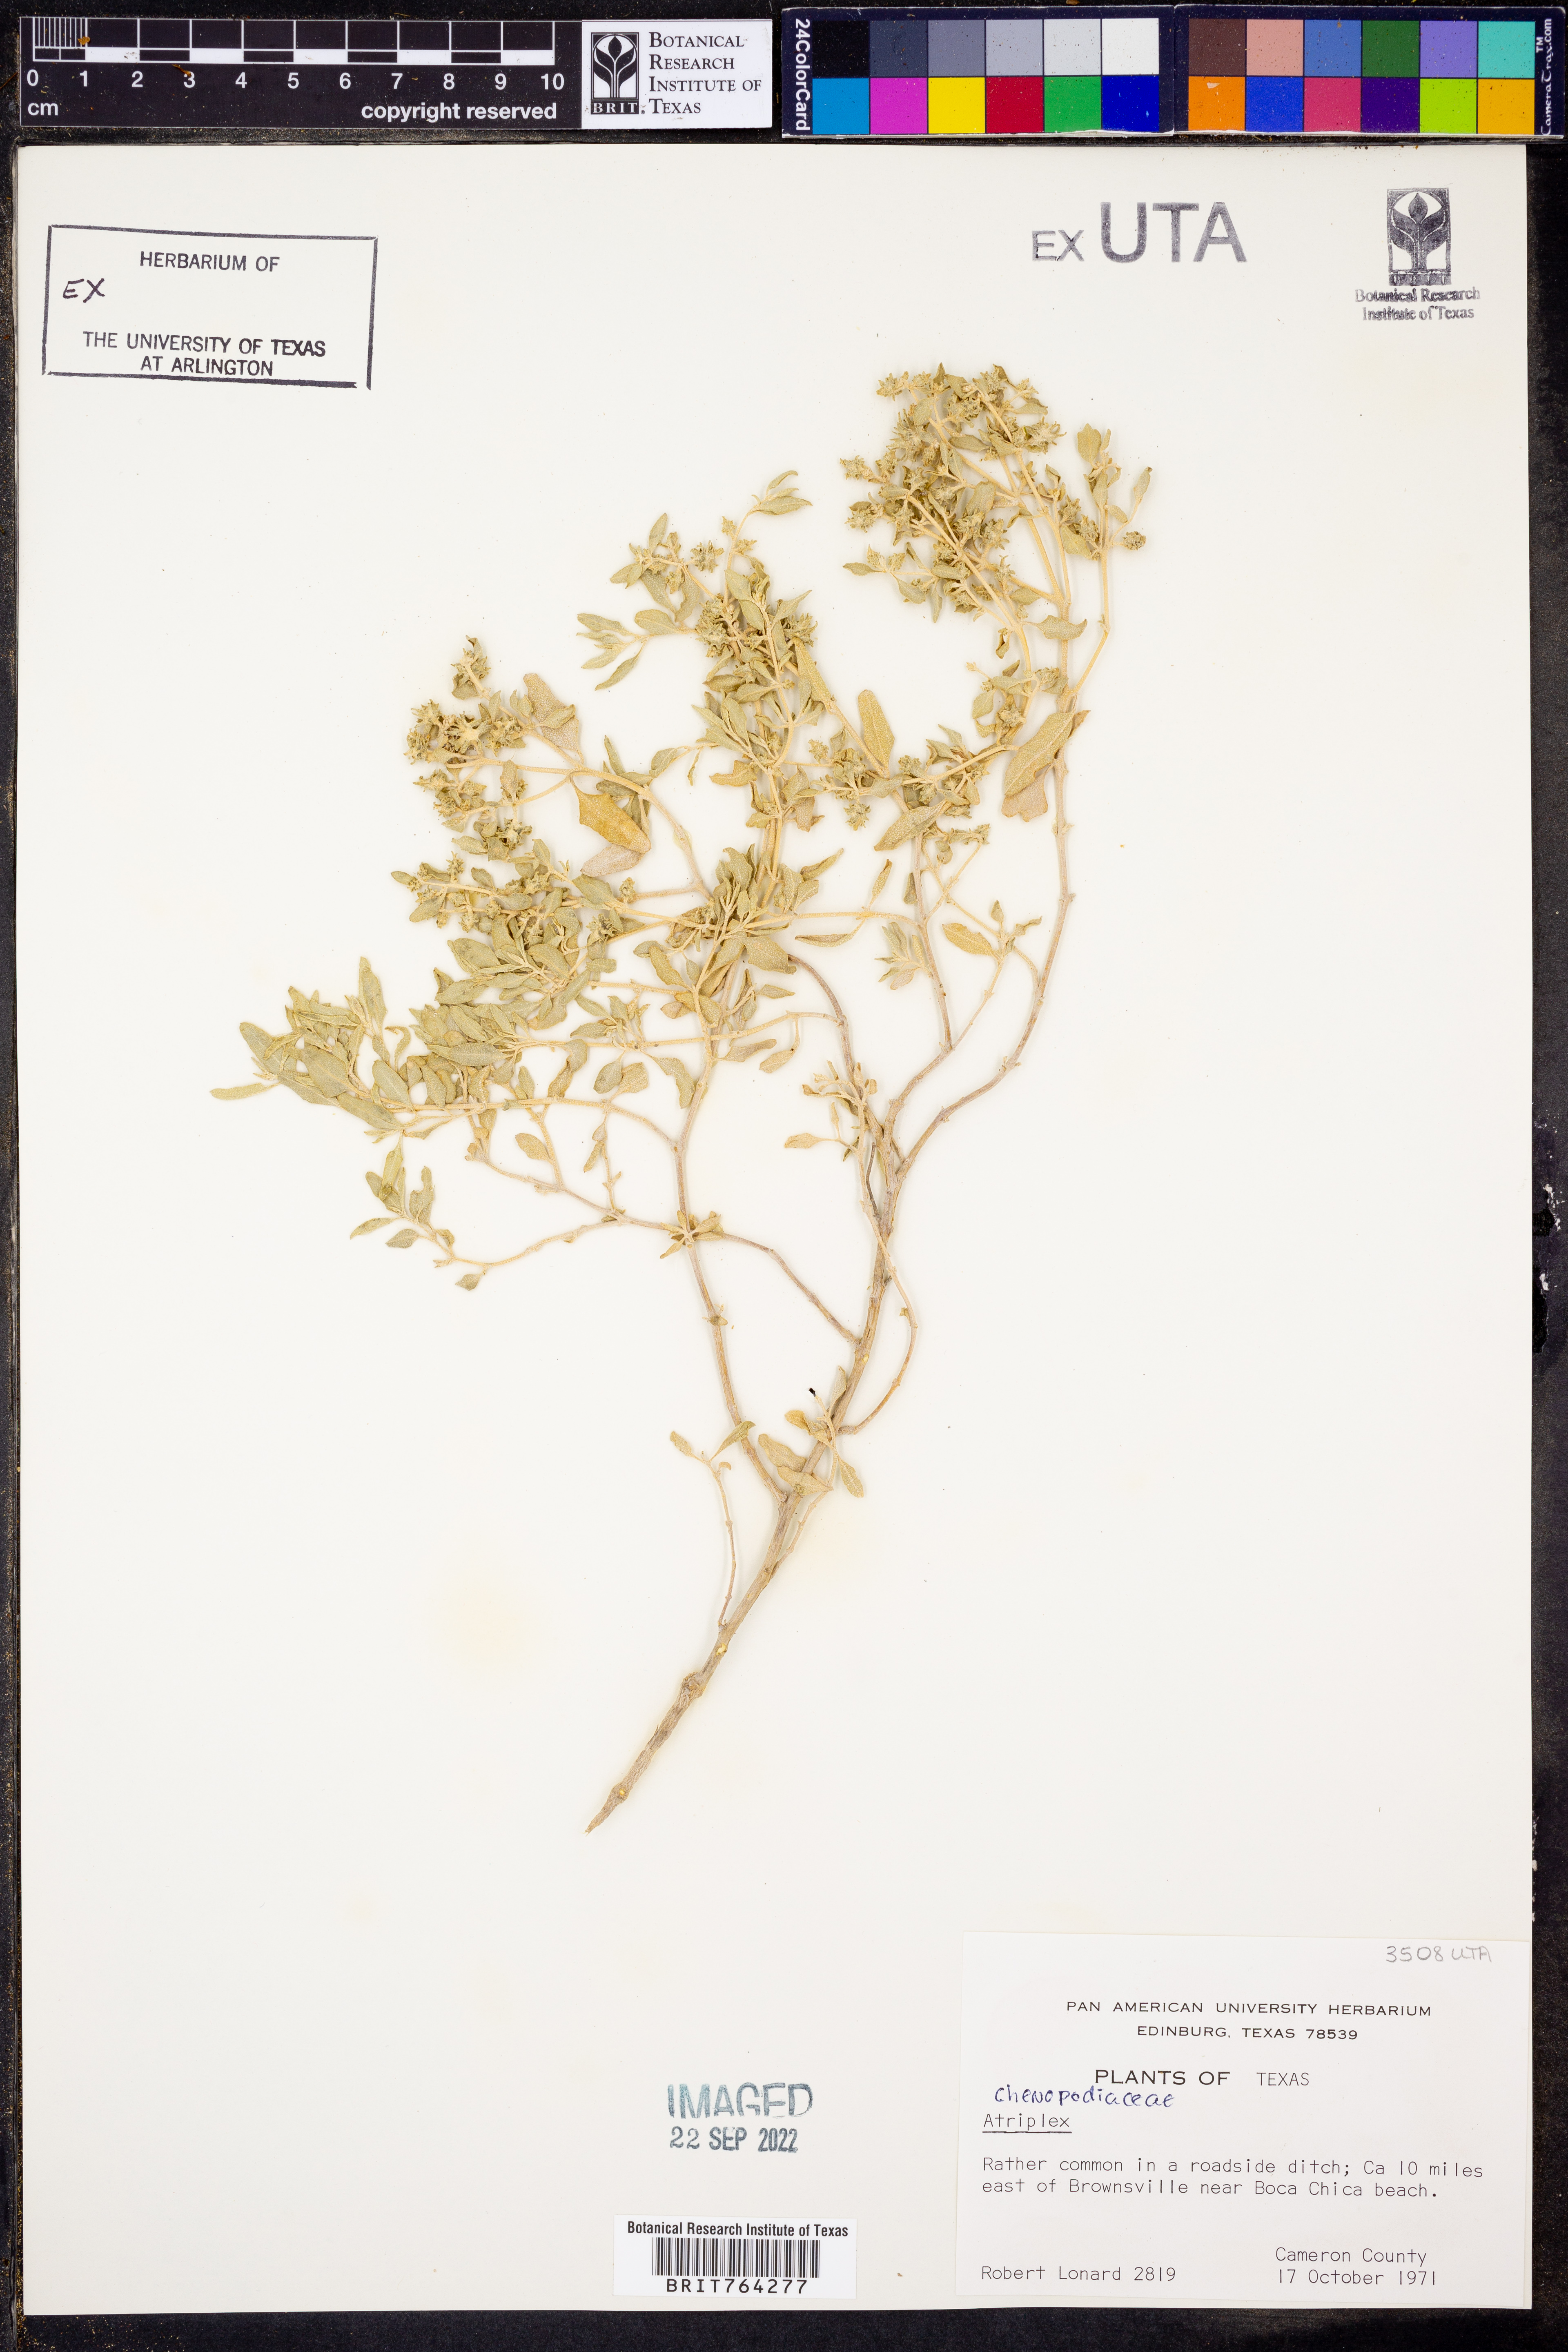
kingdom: Plantae
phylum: Tracheophyta
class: Magnoliopsida
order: Caryophyllales
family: Amaranthaceae
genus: Atriplex
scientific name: Atriplex
